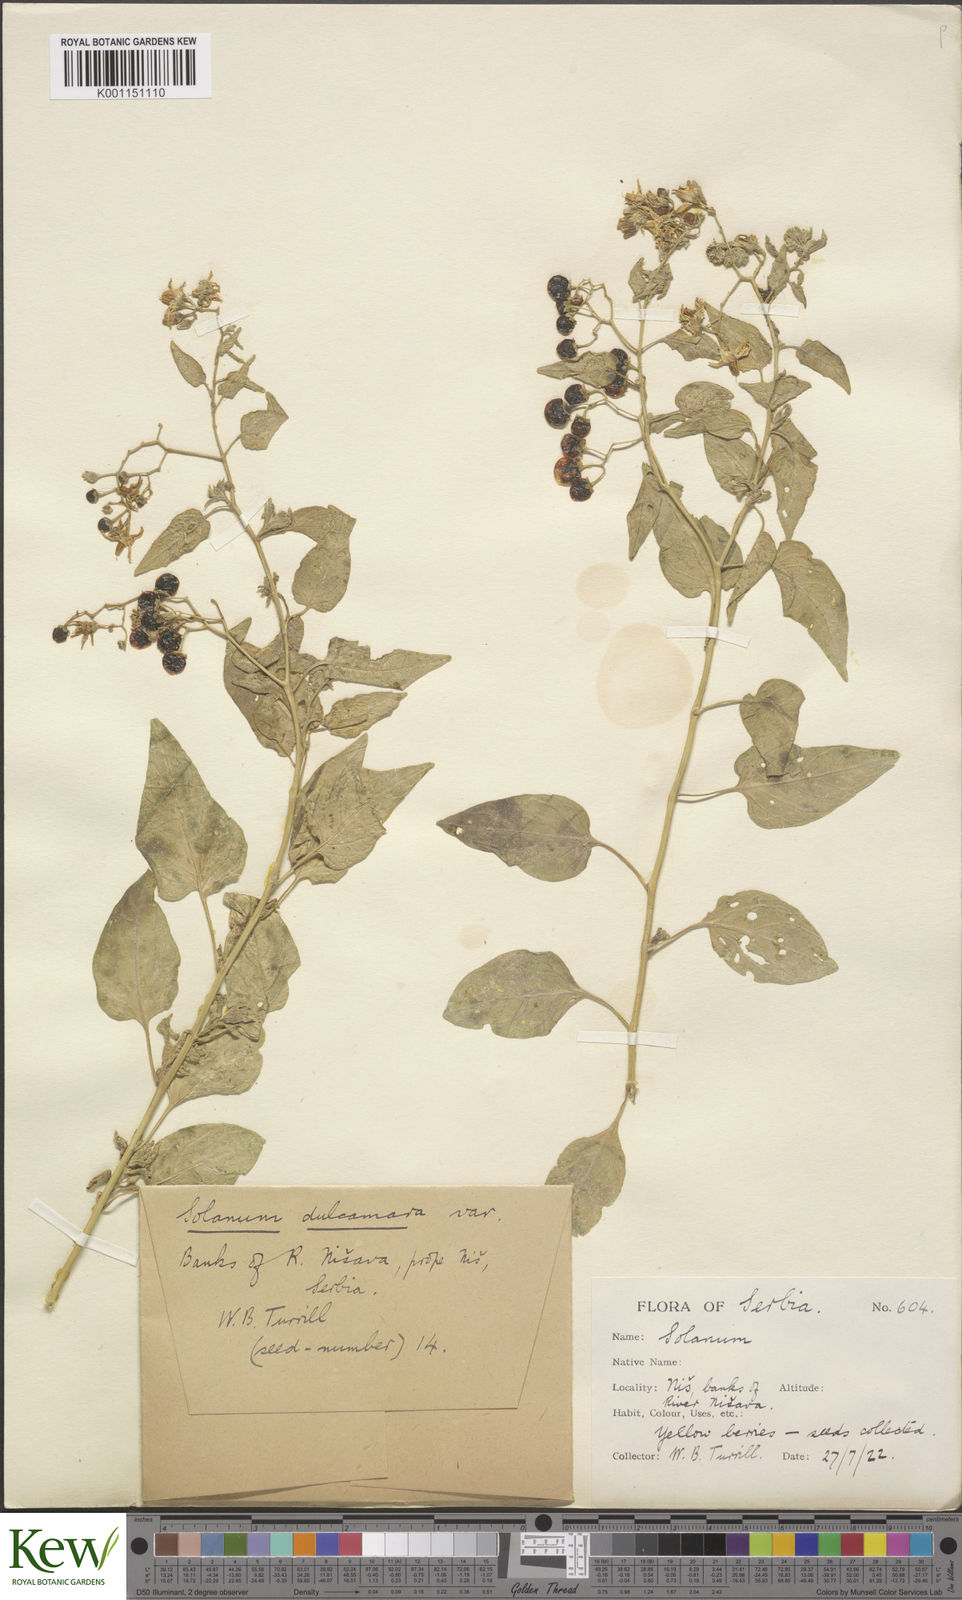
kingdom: Plantae
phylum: Tracheophyta
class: Magnoliopsida
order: Solanales
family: Solanaceae
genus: Solanum
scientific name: Solanum dulcamara
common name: Climbing nightshade
